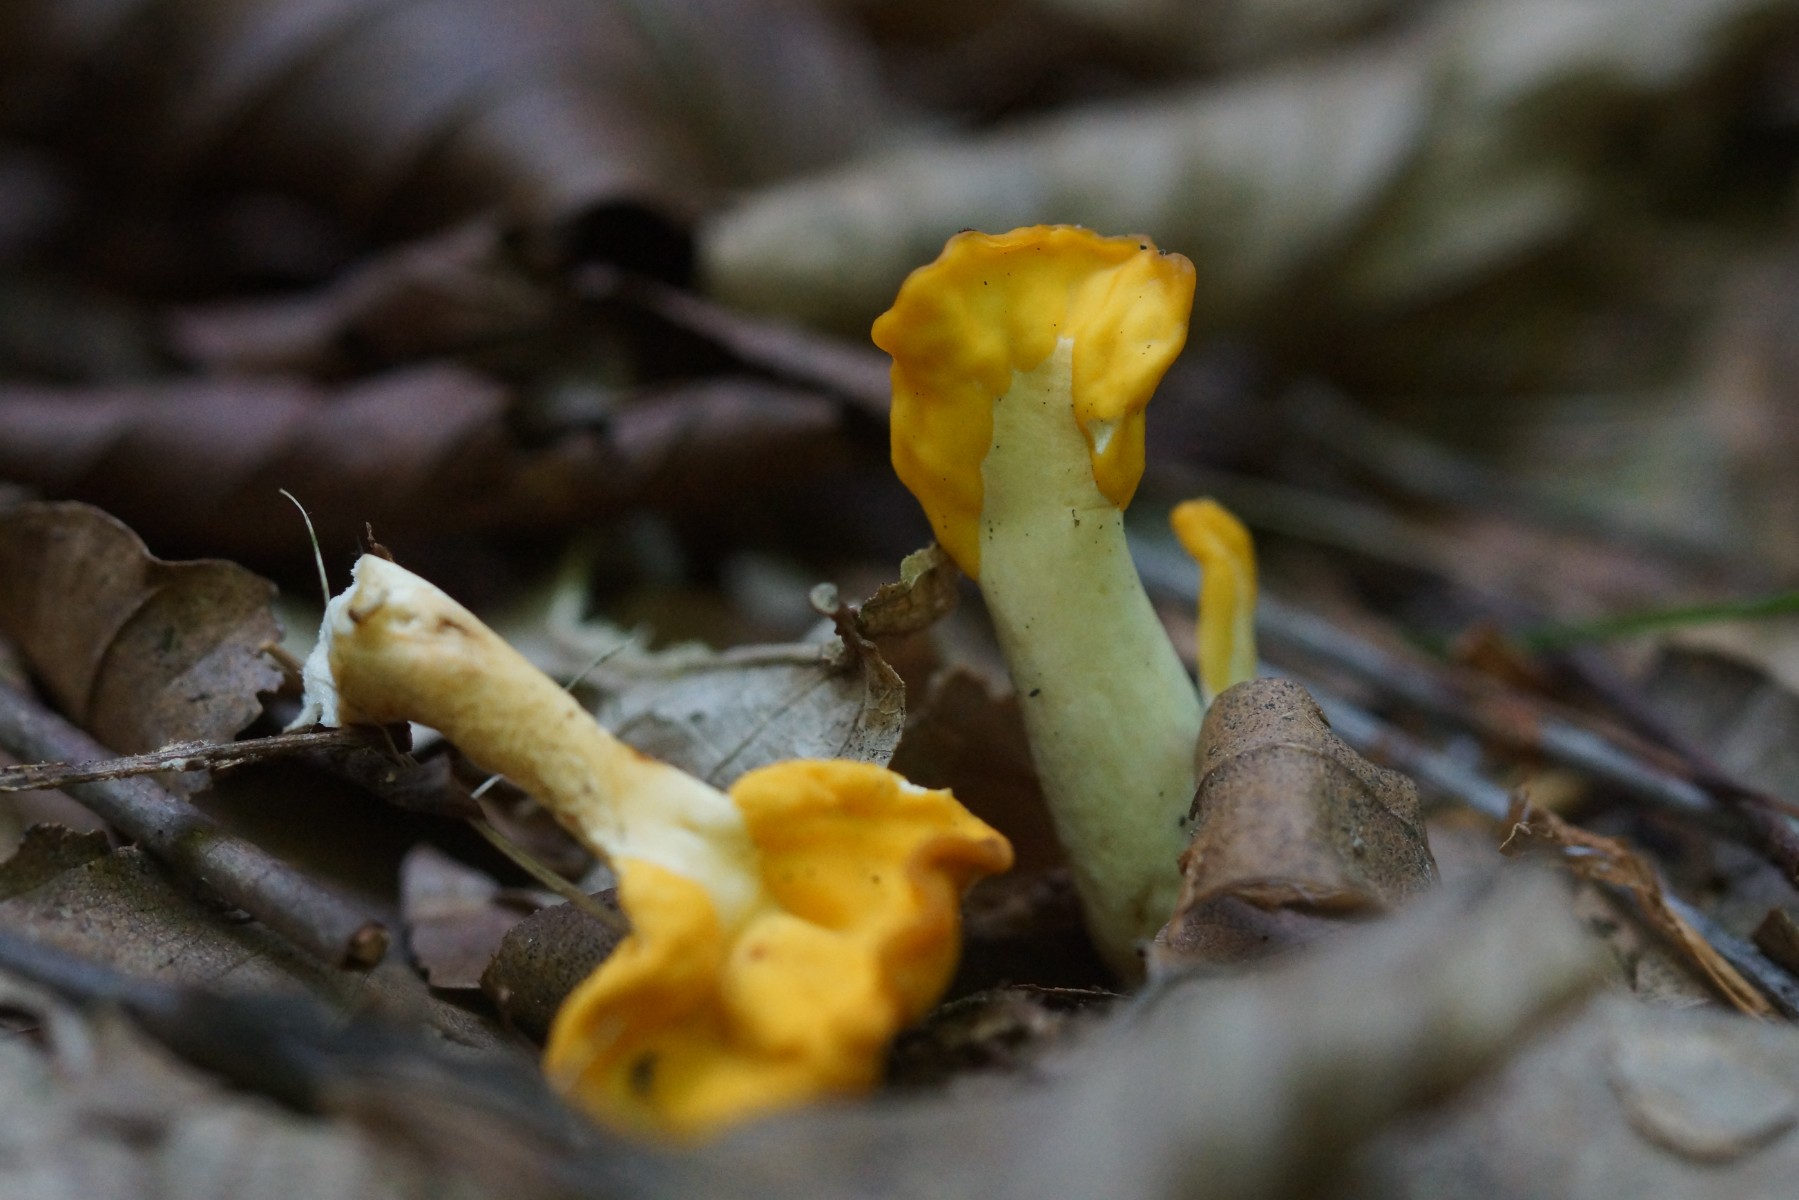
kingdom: Fungi
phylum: Ascomycota
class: Leotiomycetes
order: Rhytismatales
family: Cudoniaceae
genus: Spathularia
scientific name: Spathularia flavida
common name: gul spatelsvamp
